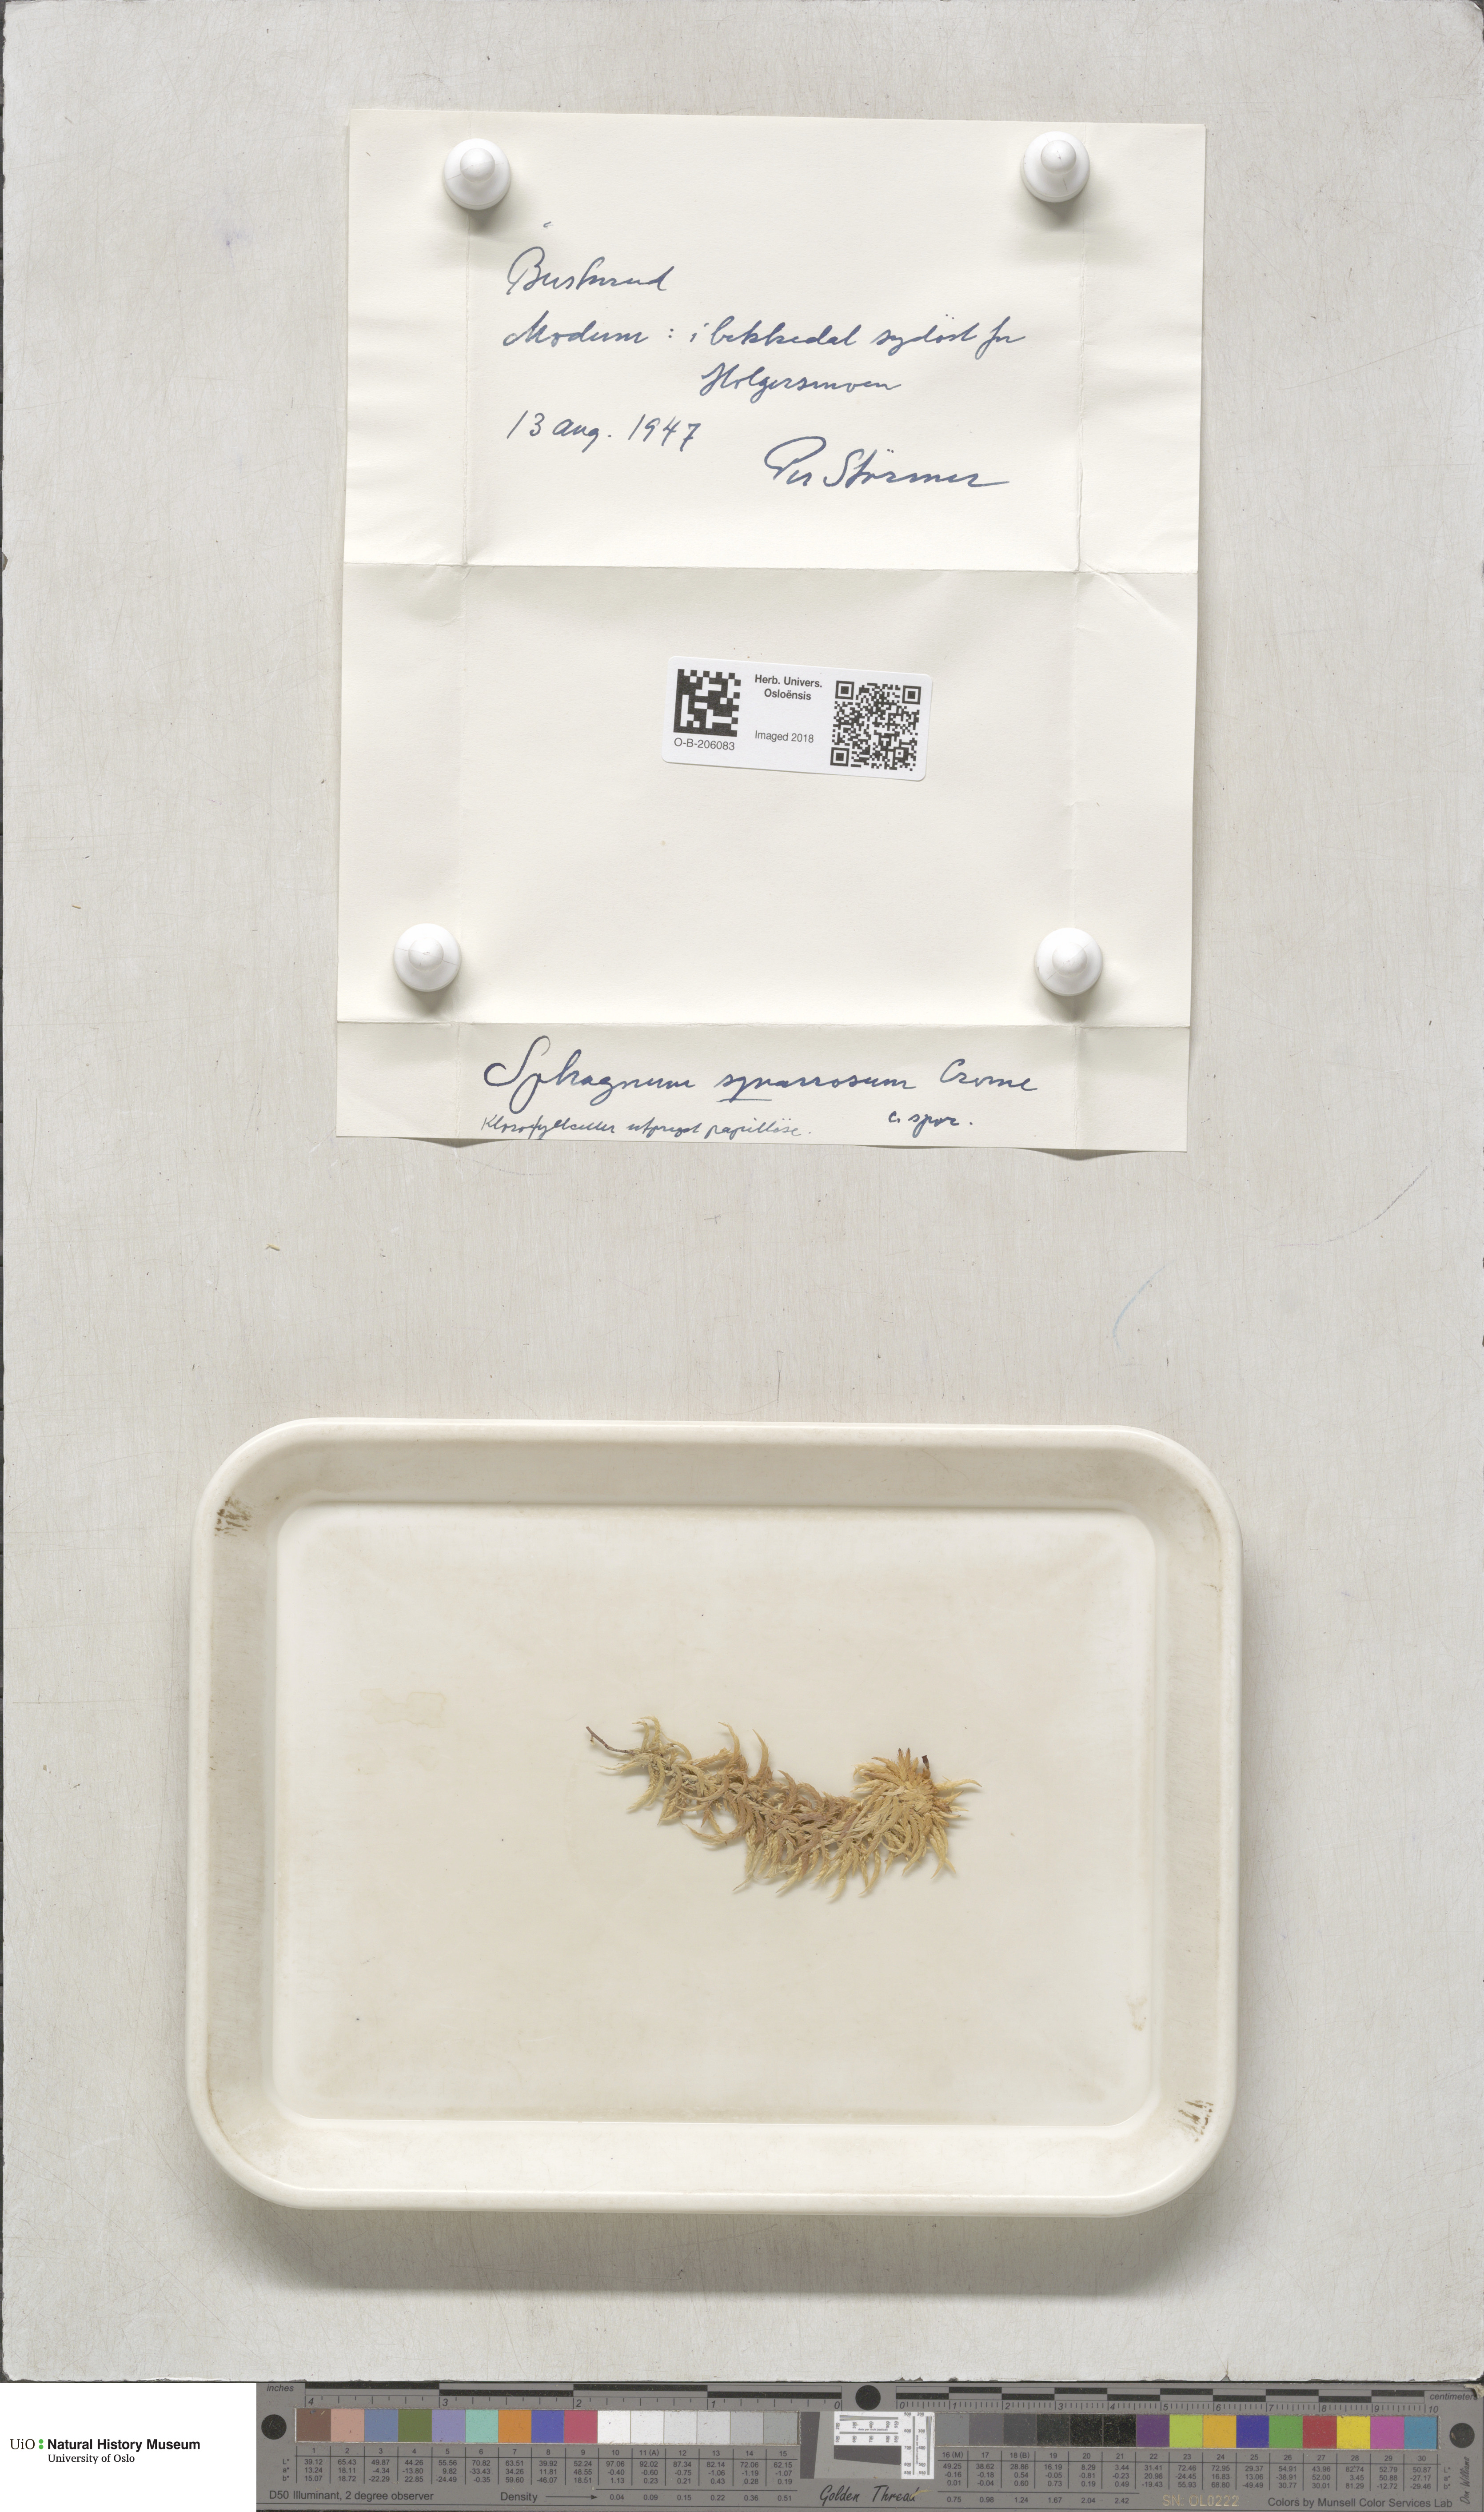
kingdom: Plantae
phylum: Bryophyta
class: Sphagnopsida
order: Sphagnales
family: Sphagnaceae
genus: Sphagnum
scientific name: Sphagnum squarrosum
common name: Shaggy peat moss
